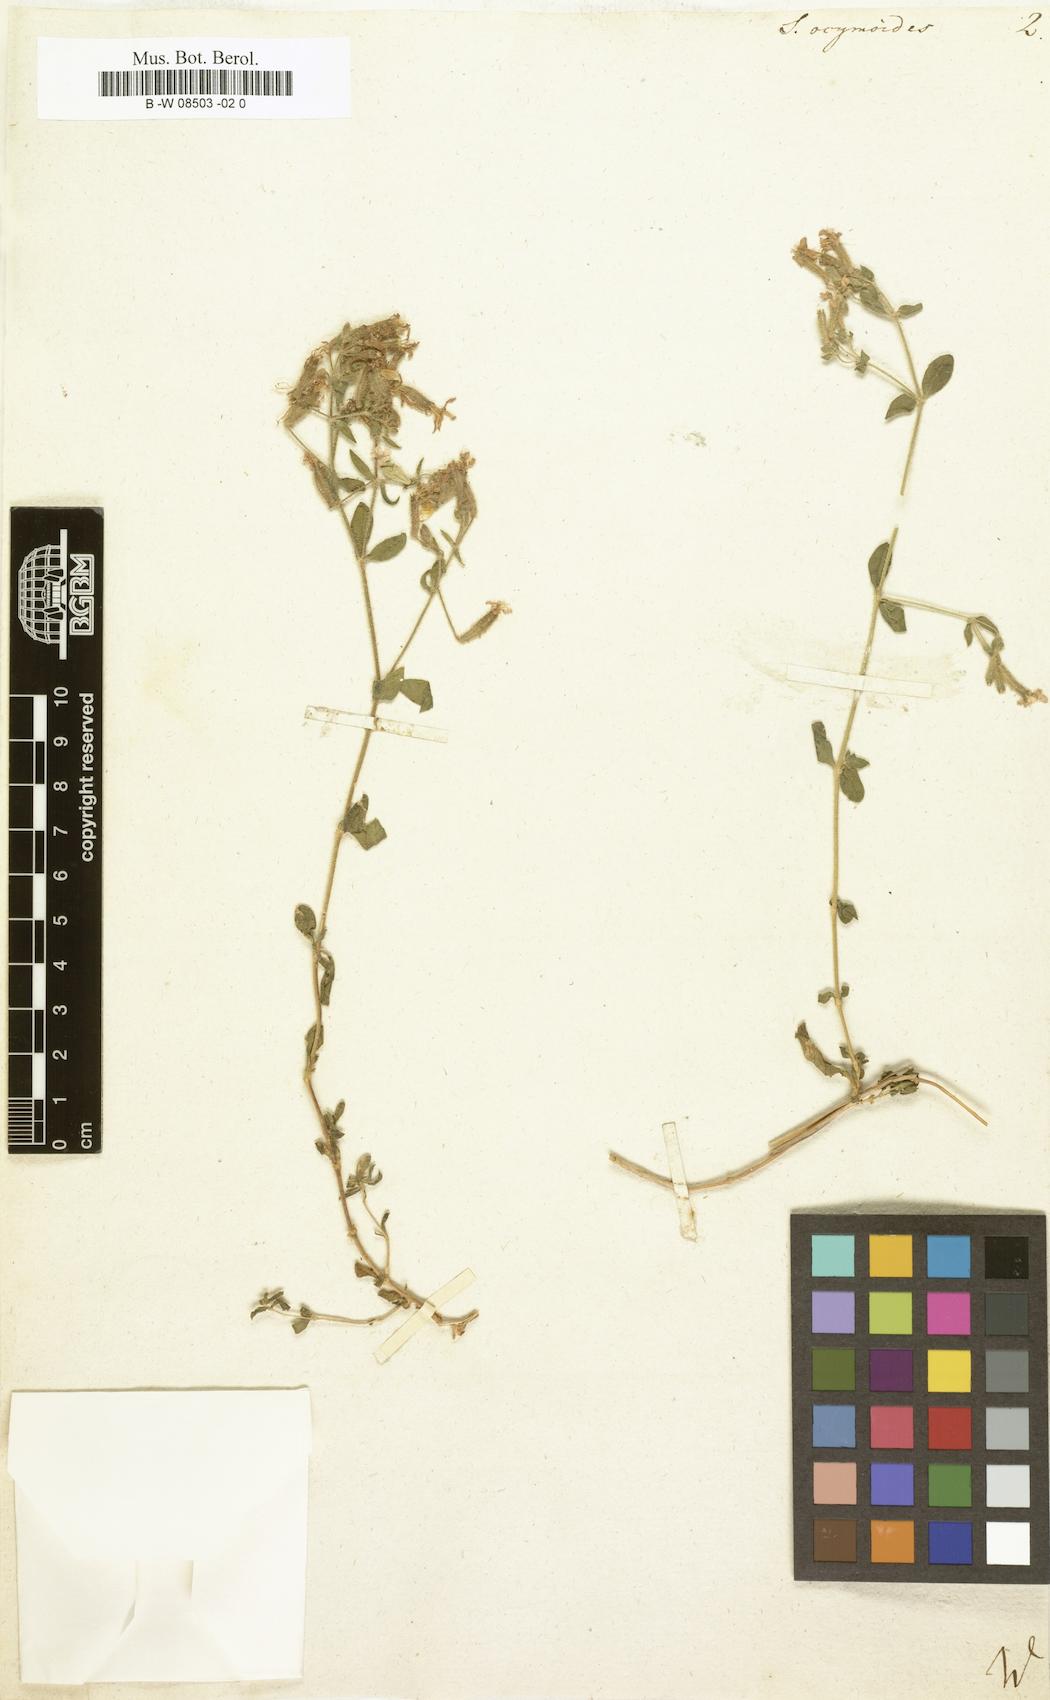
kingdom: Plantae
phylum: Tracheophyta
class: Magnoliopsida
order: Caryophyllales
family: Caryophyllaceae
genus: Saponaria
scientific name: Saponaria ocymoides
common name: Rock soapwort
